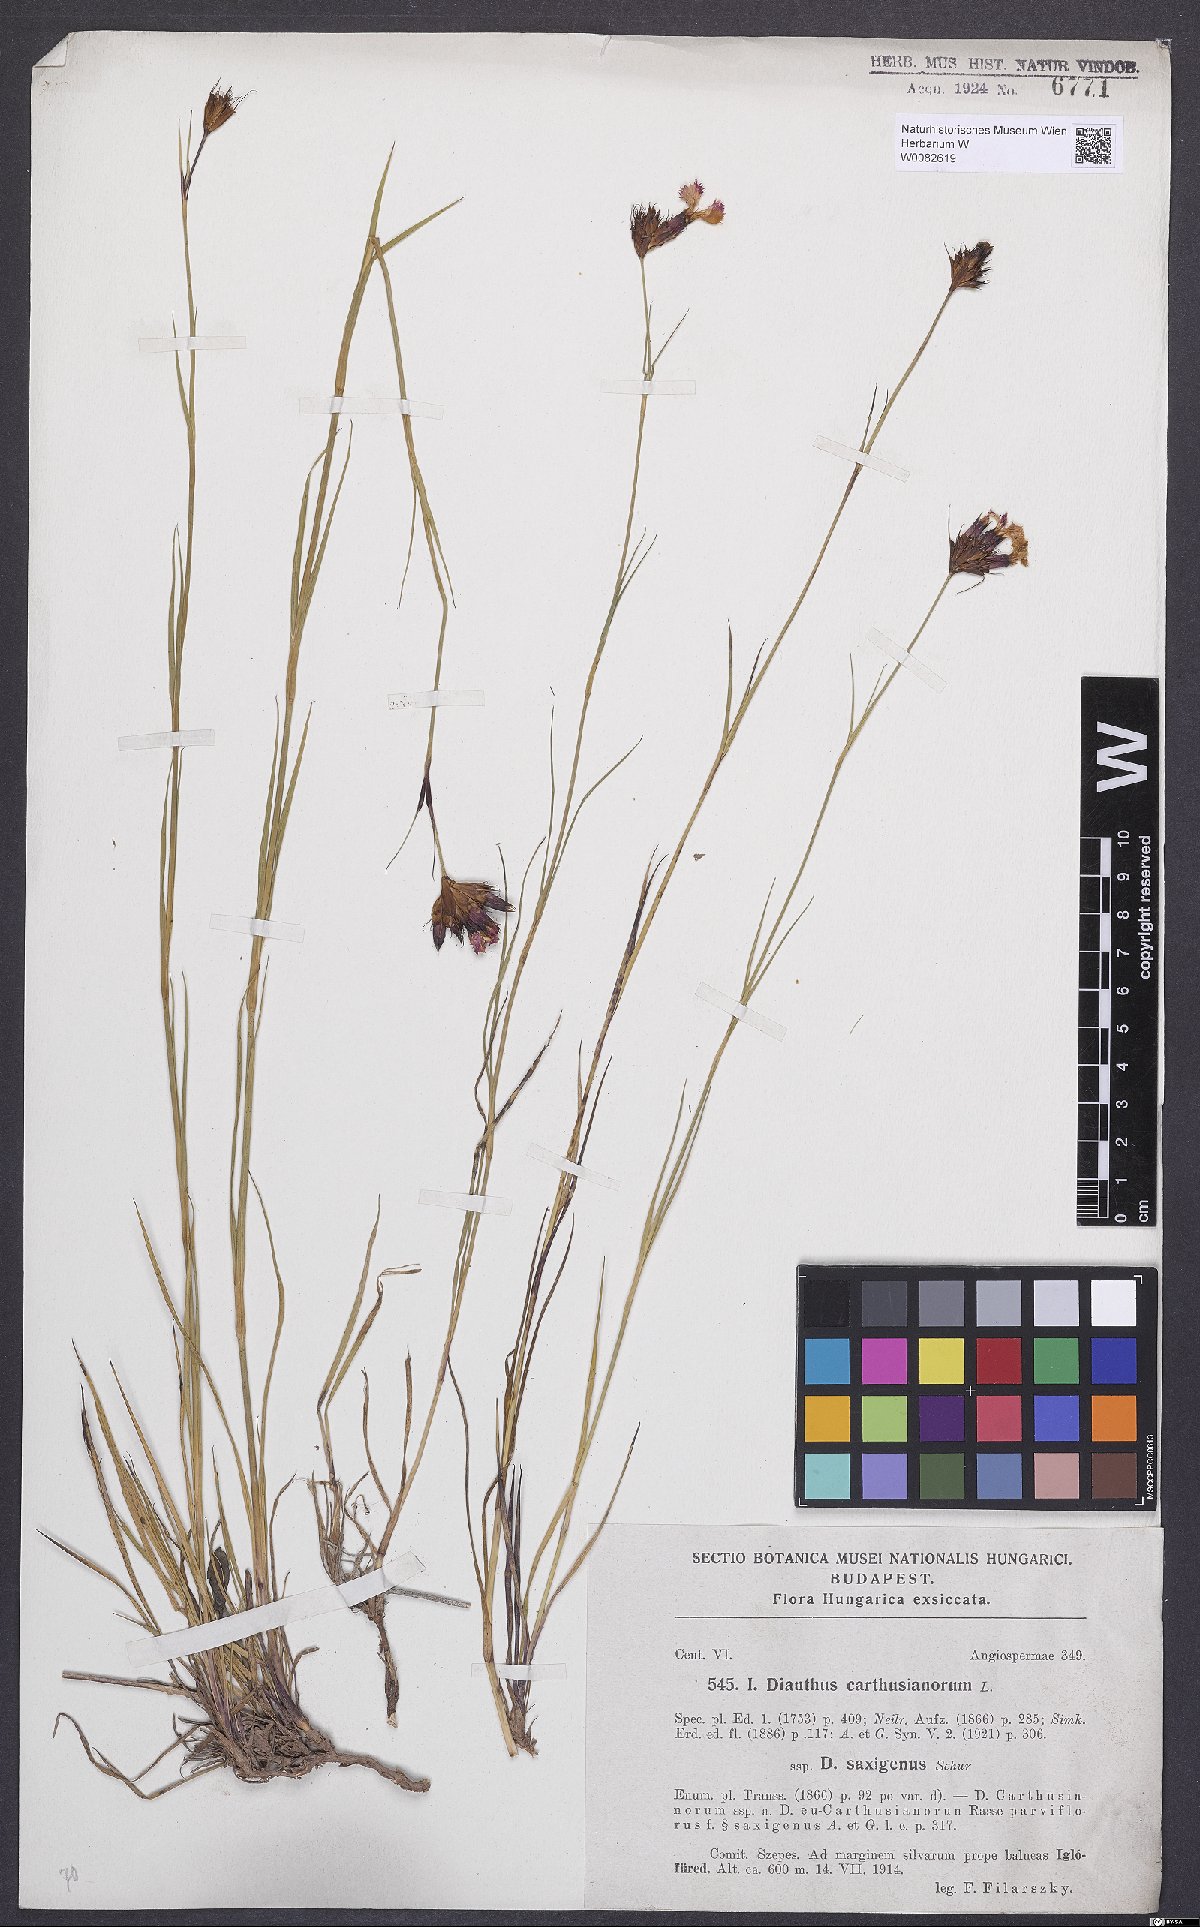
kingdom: Plantae
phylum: Tracheophyta
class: Magnoliopsida
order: Caryophyllales
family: Caryophyllaceae
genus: Dianthus
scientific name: Dianthus carthusianorum
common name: Carthusian pink
